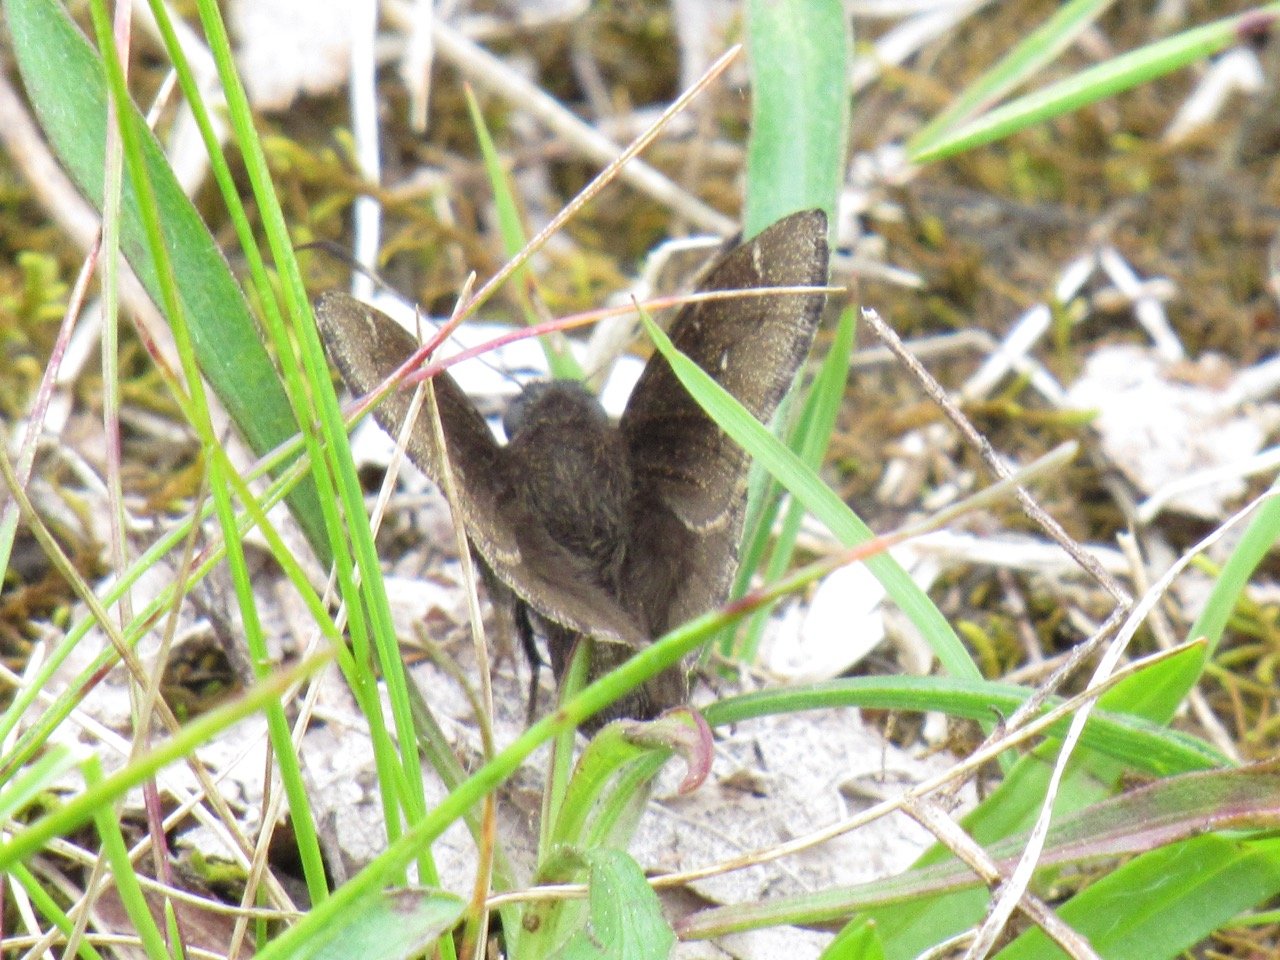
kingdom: Animalia
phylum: Arthropoda
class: Insecta
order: Lepidoptera
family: Hesperiidae
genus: Autochton
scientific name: Autochton
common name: Northern Cloudywing
